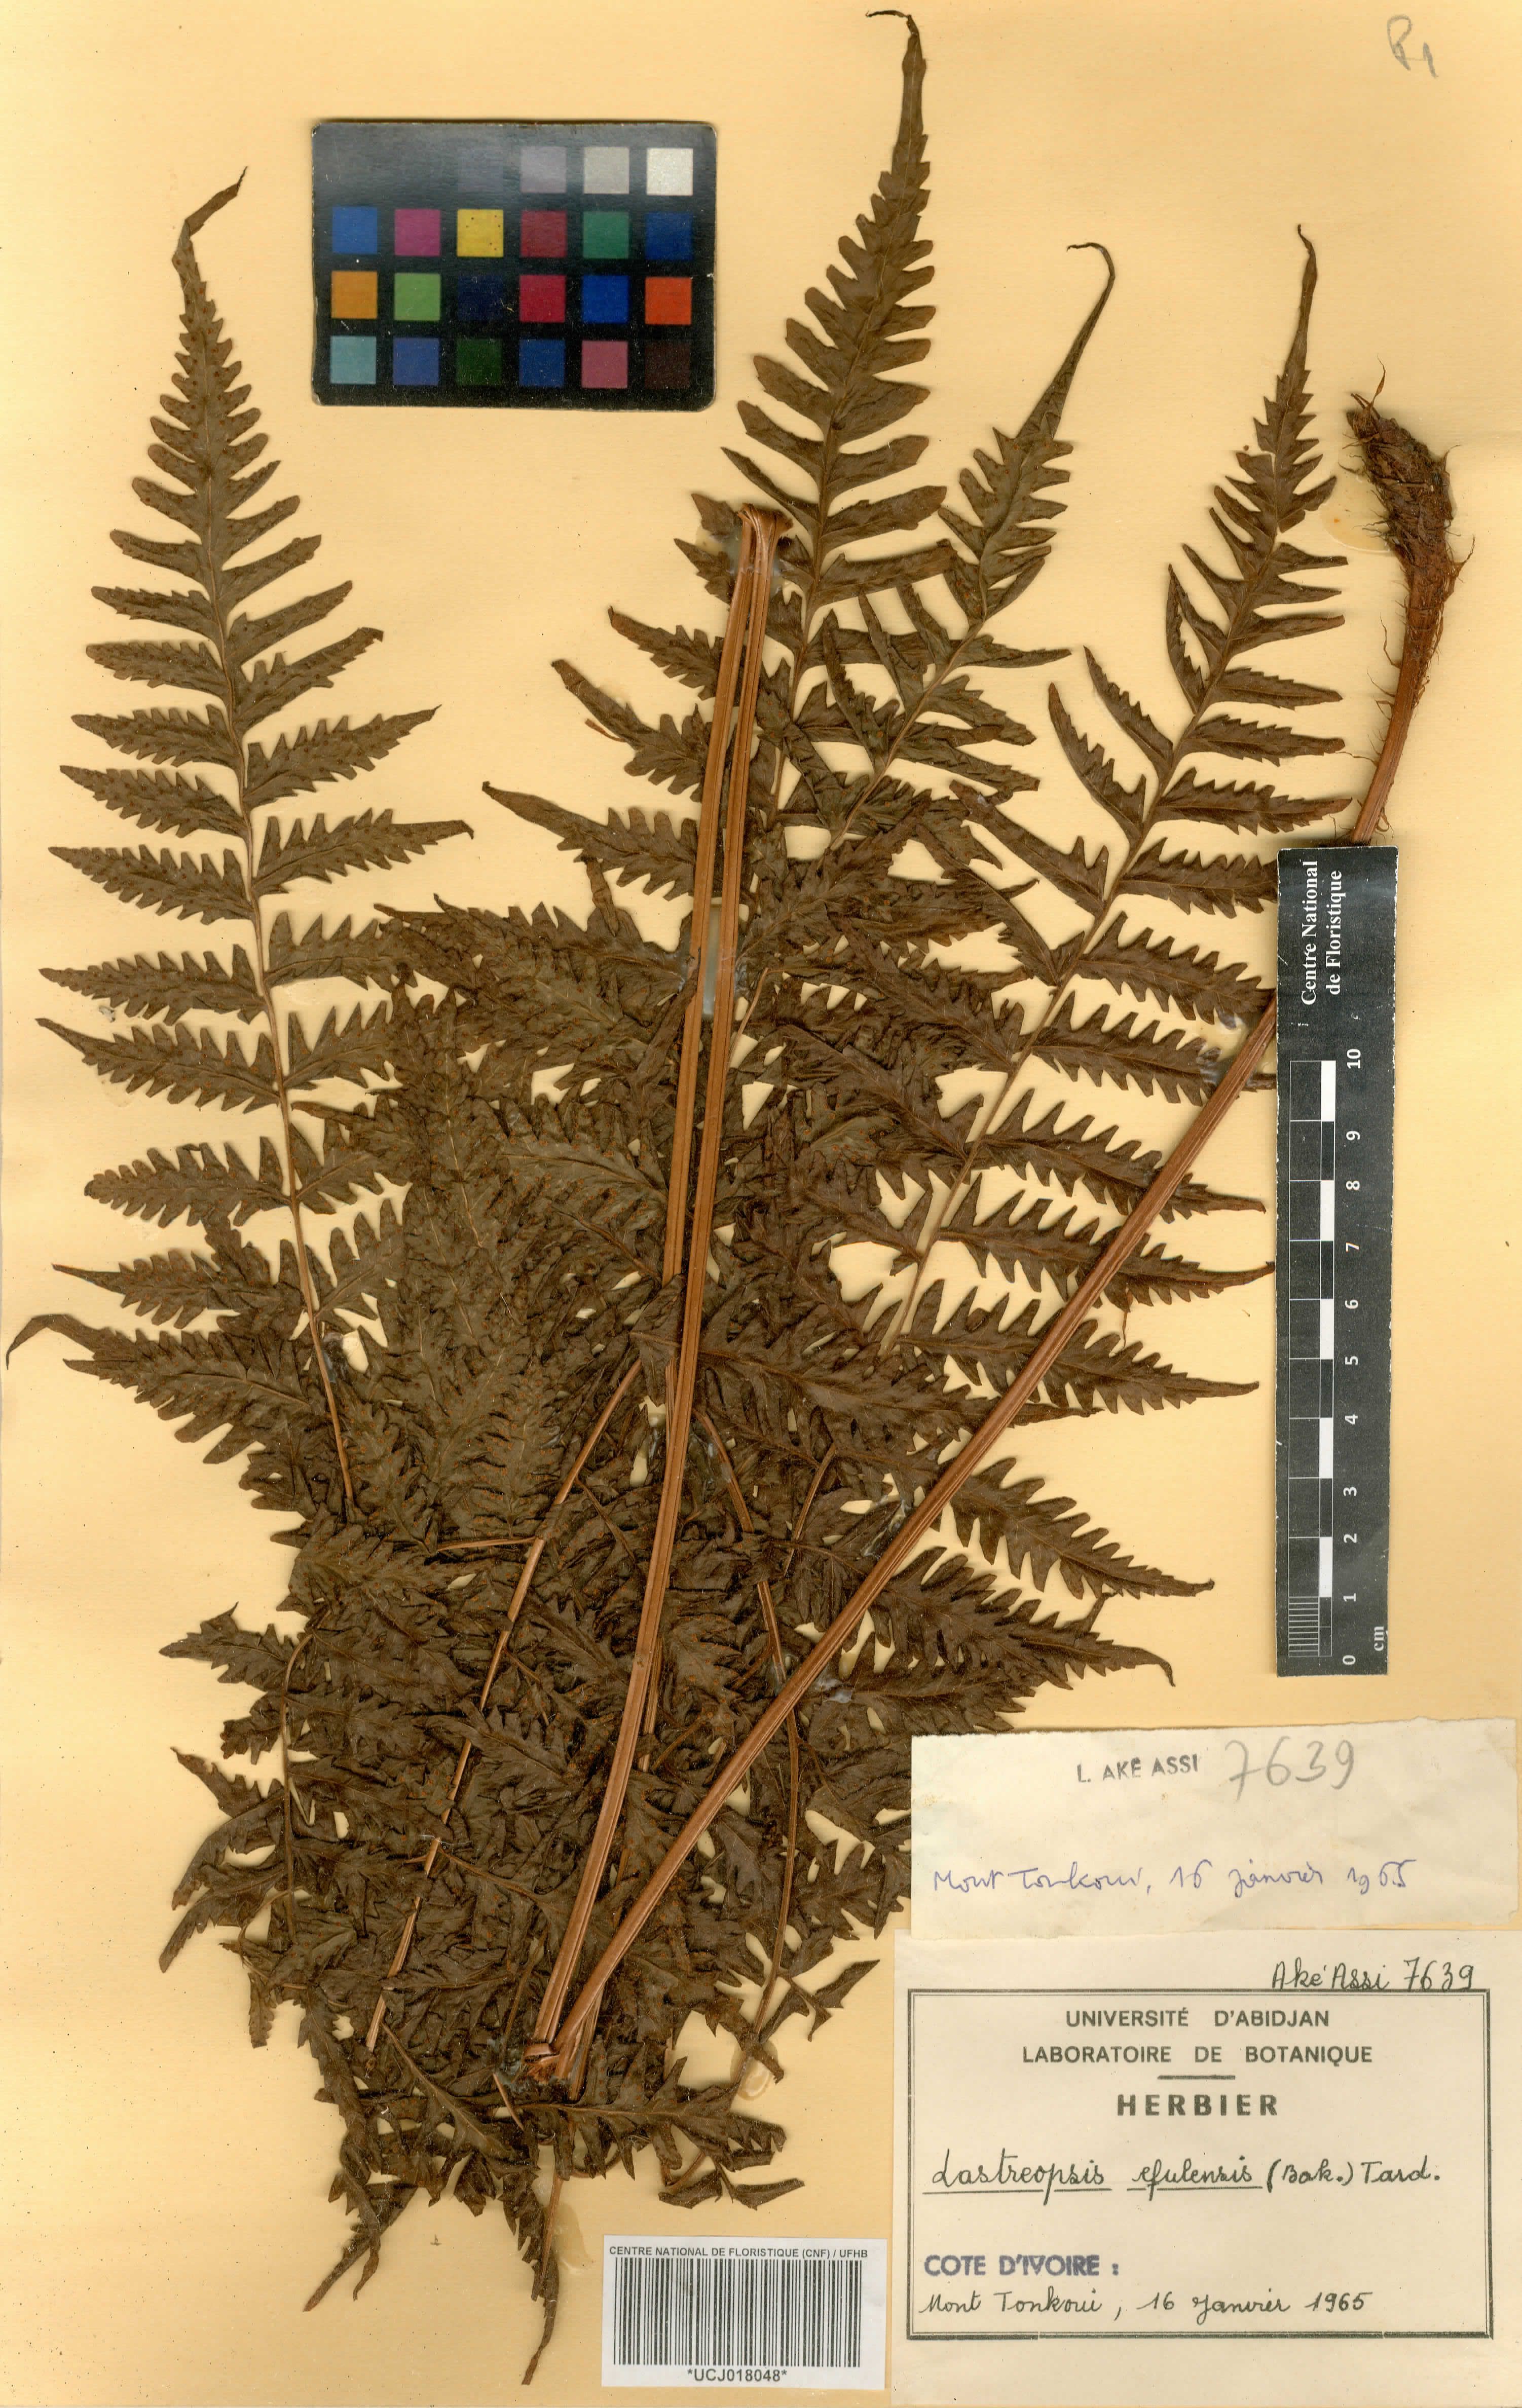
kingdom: Plantae
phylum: Tracheophyta
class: Polypodiopsida
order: Polypodiales
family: Dryopteridaceae
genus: Parapolystichum
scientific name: Parapolystichum currorii
